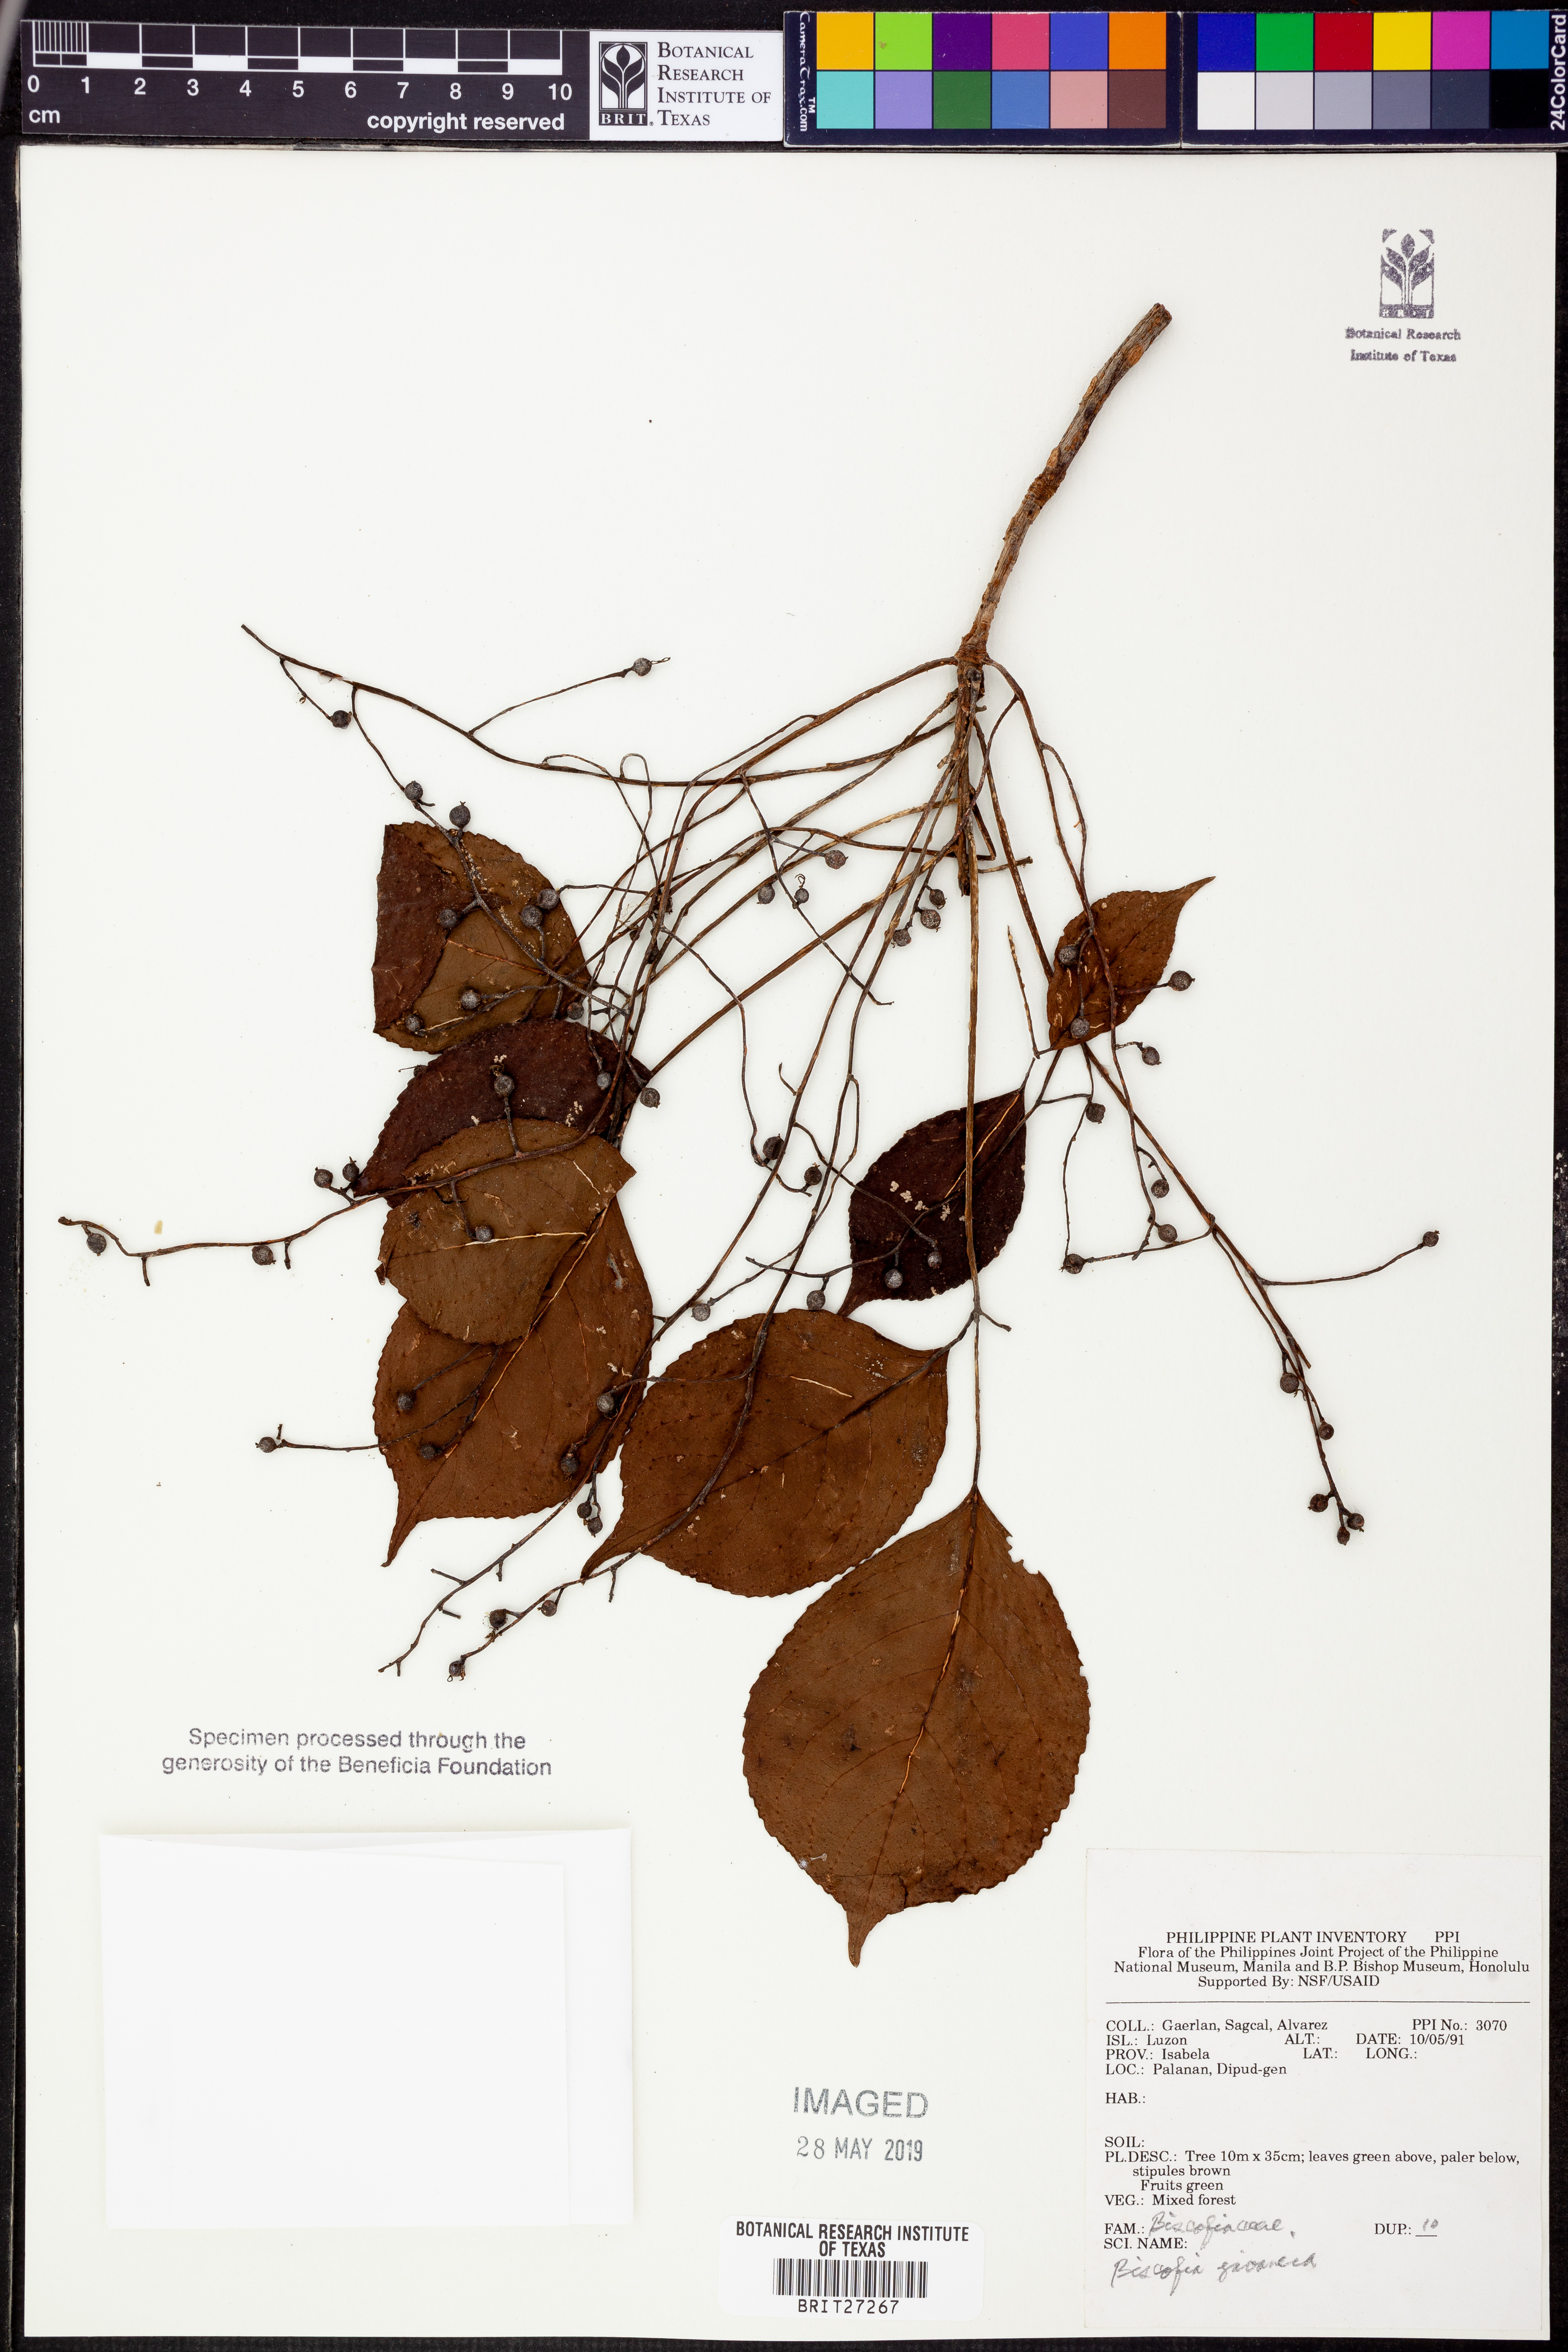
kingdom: Plantae
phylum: Tracheophyta
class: Magnoliopsida
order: Malpighiales
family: Phyllanthaceae
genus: Bischofia
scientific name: Bischofia javanica
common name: Javanese bishopwood
